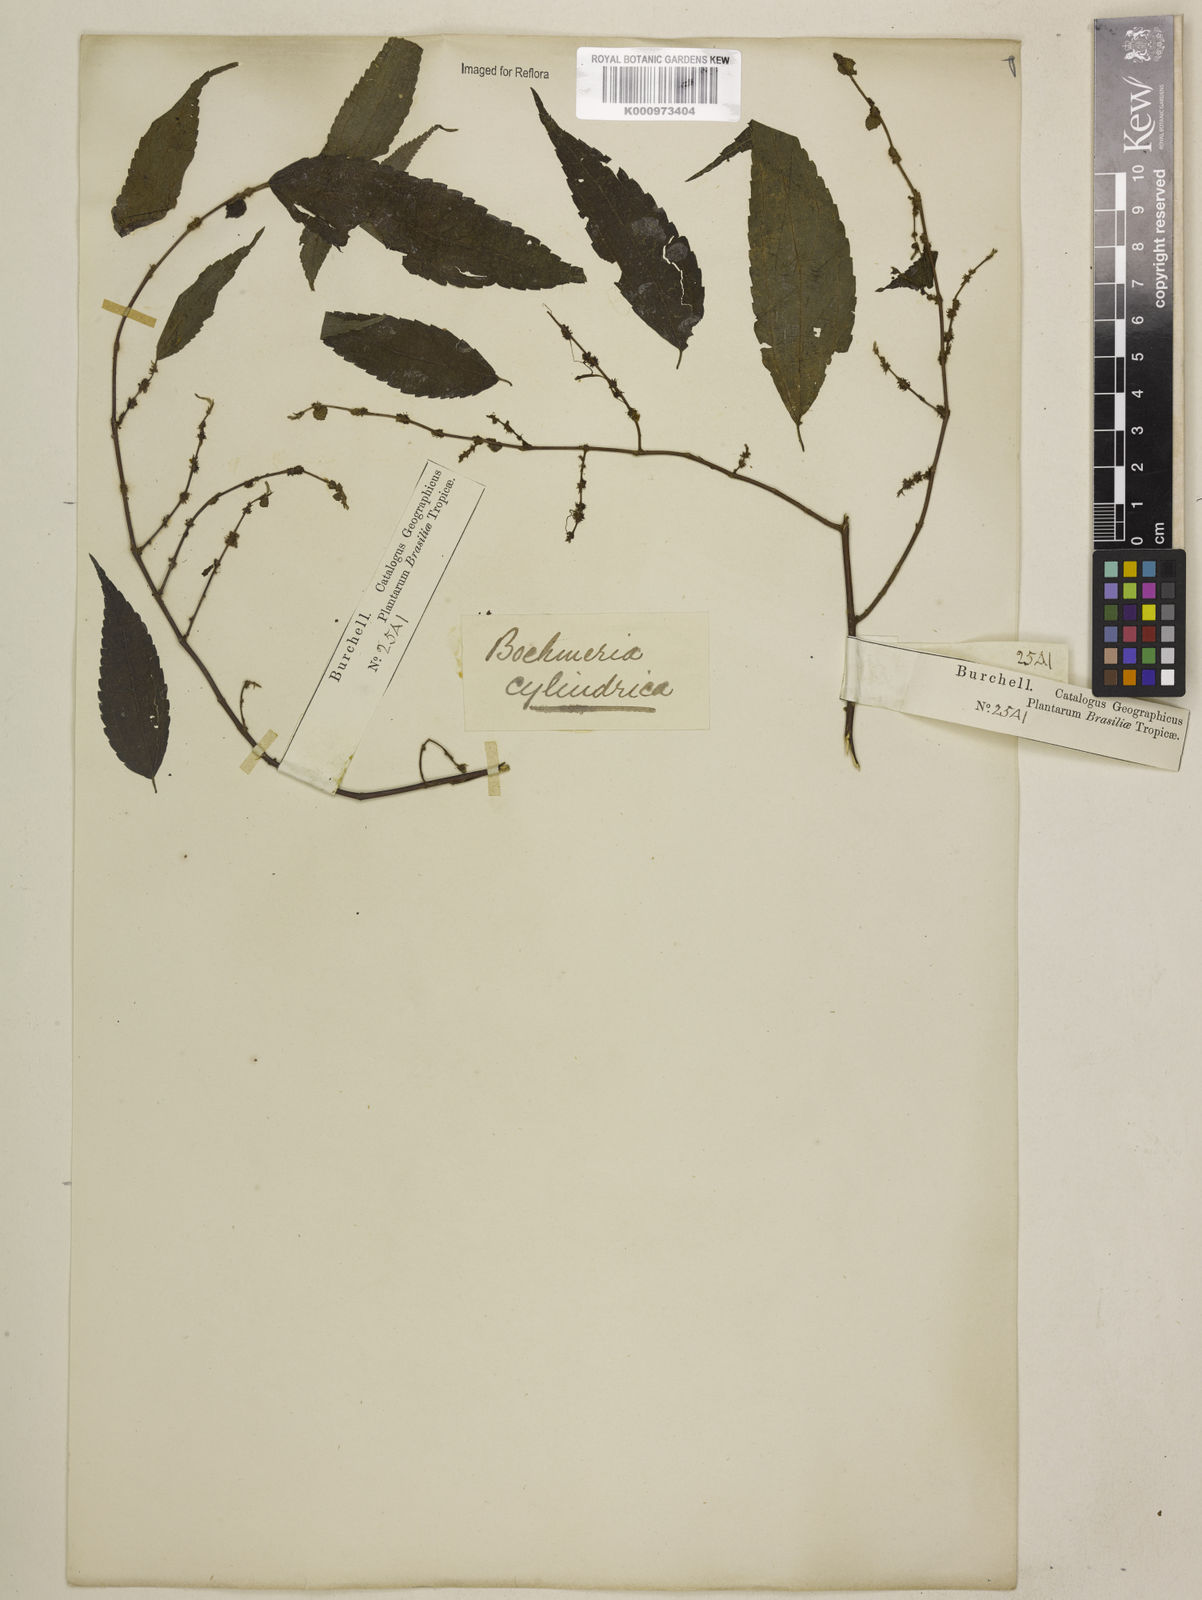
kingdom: Plantae
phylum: Tracheophyta
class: Magnoliopsida
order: Rosales
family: Urticaceae
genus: Boehmeria
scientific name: Boehmeria cylindrica
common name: Bog-hemp
